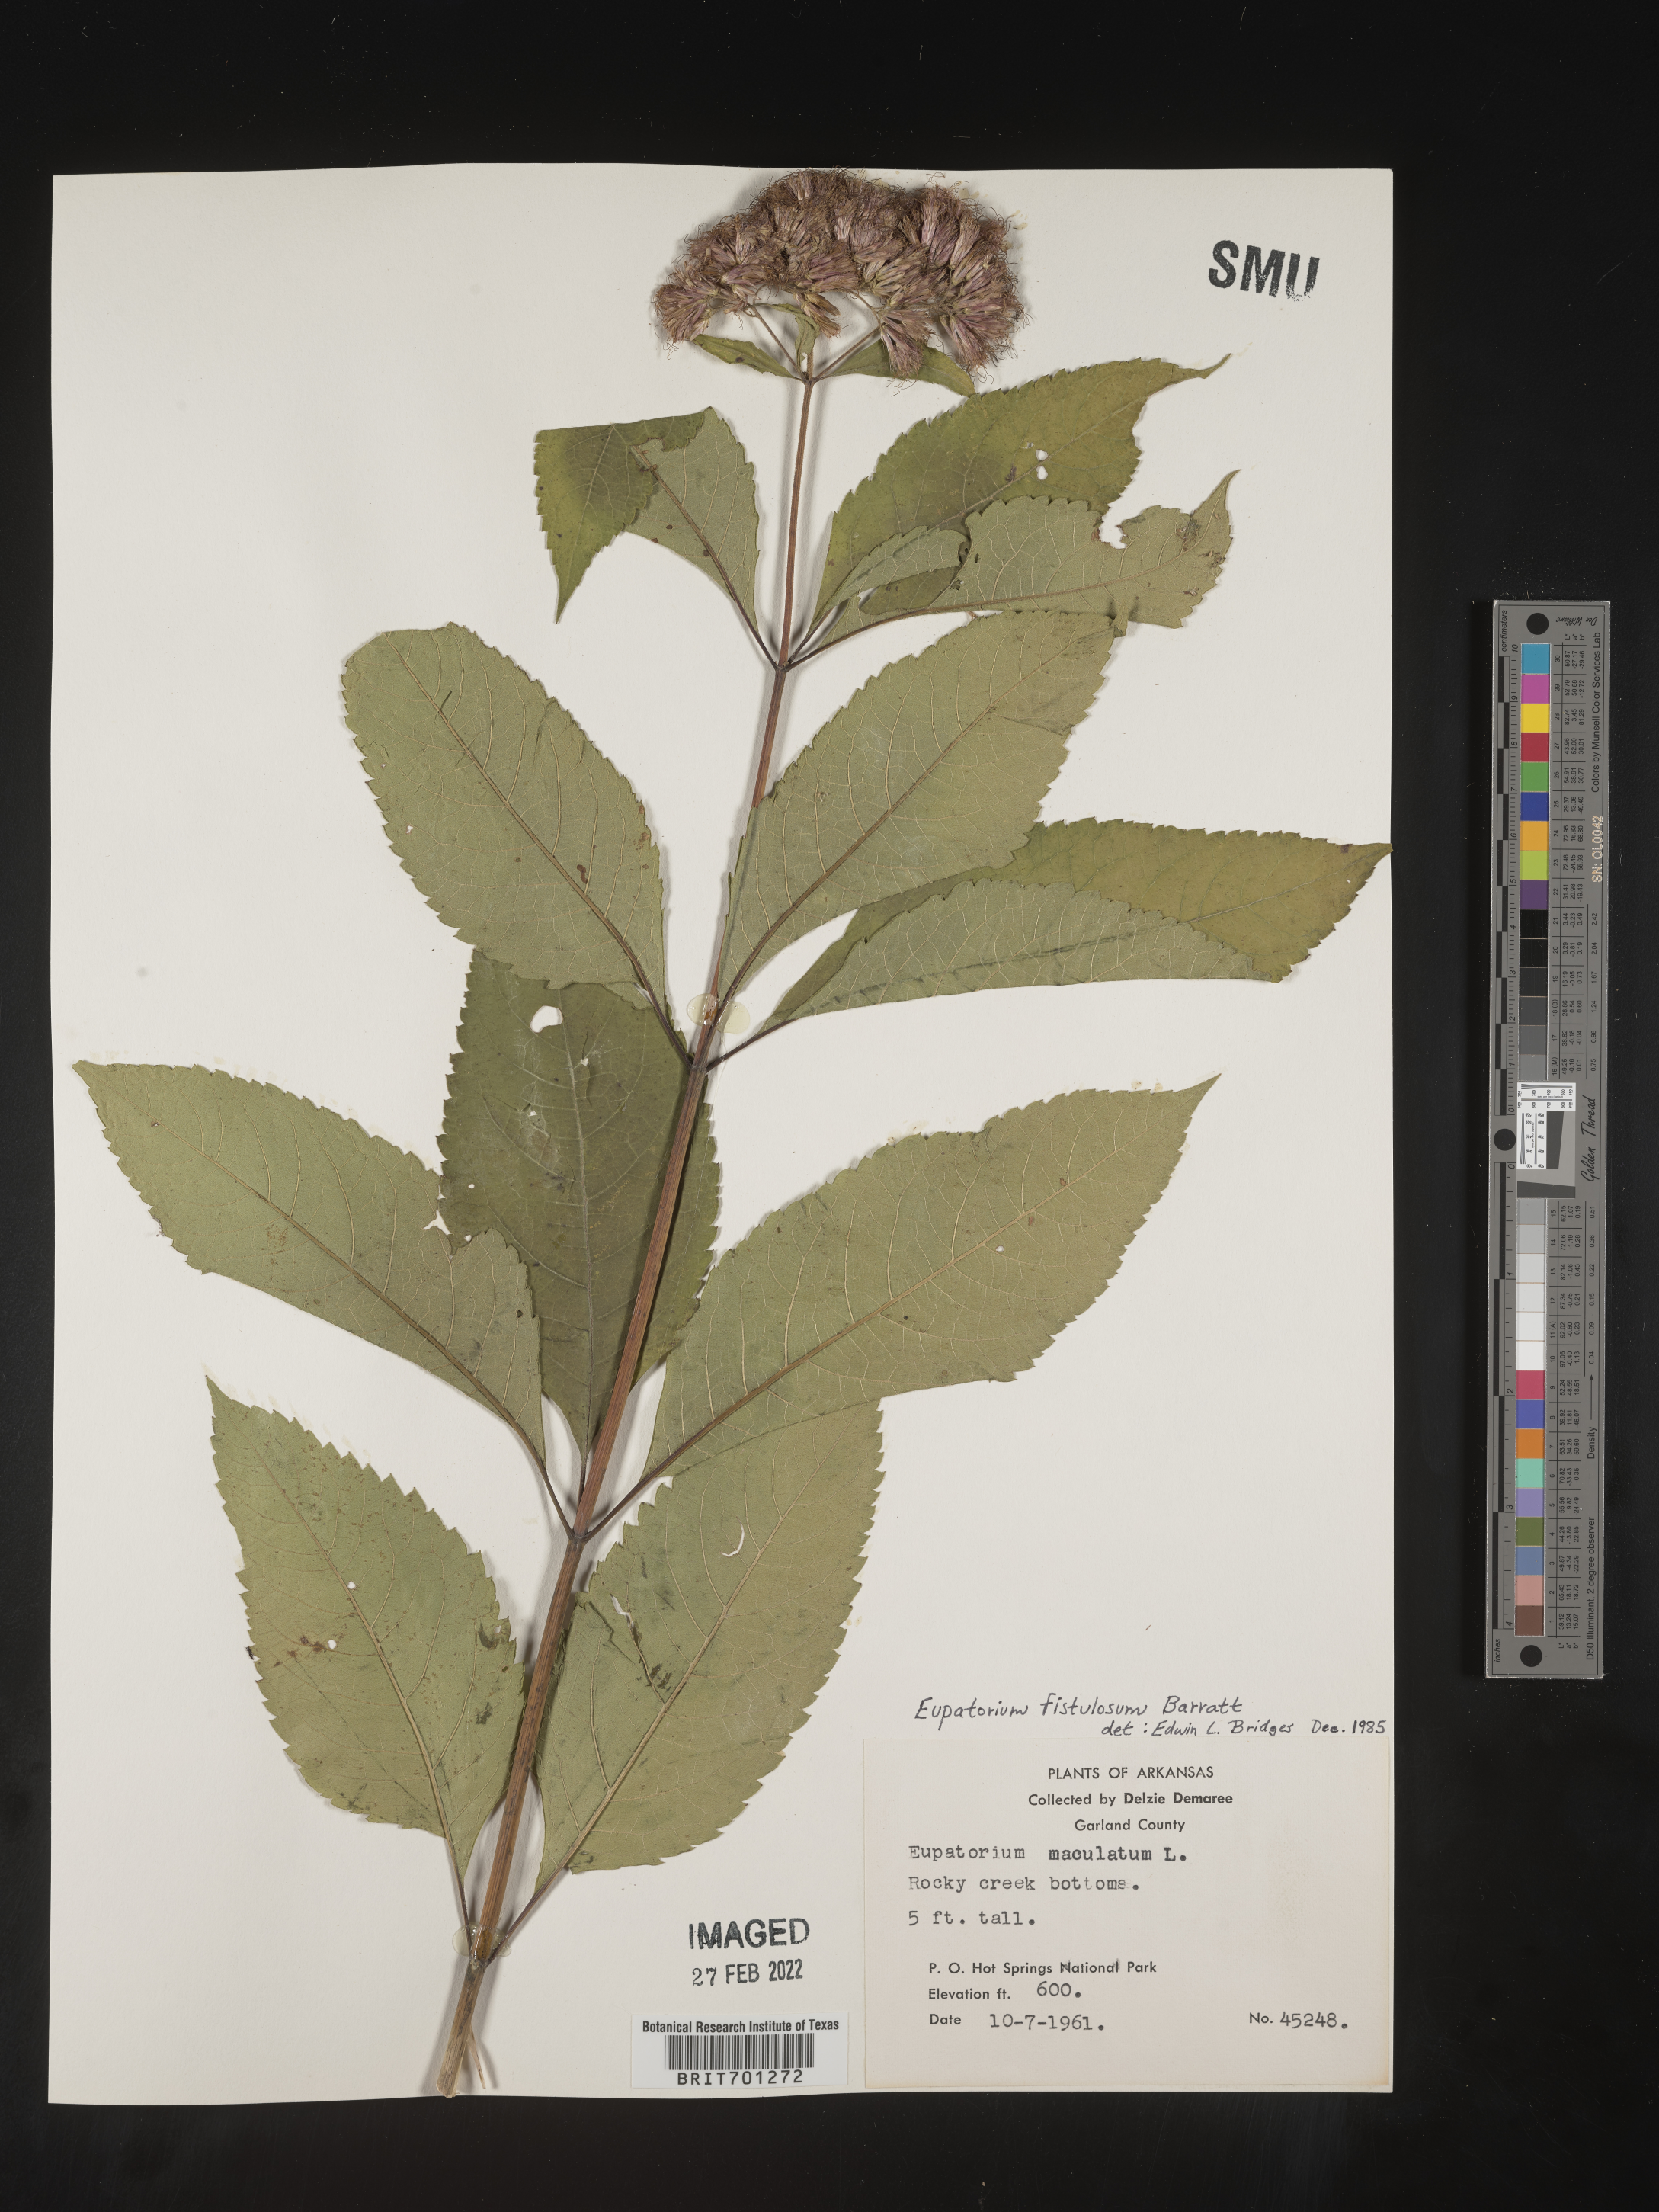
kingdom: Plantae
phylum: Tracheophyta
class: Magnoliopsida
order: Asterales
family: Asteraceae
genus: Eutrochium
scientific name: Eutrochium fistulosum
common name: Trumpetweed
